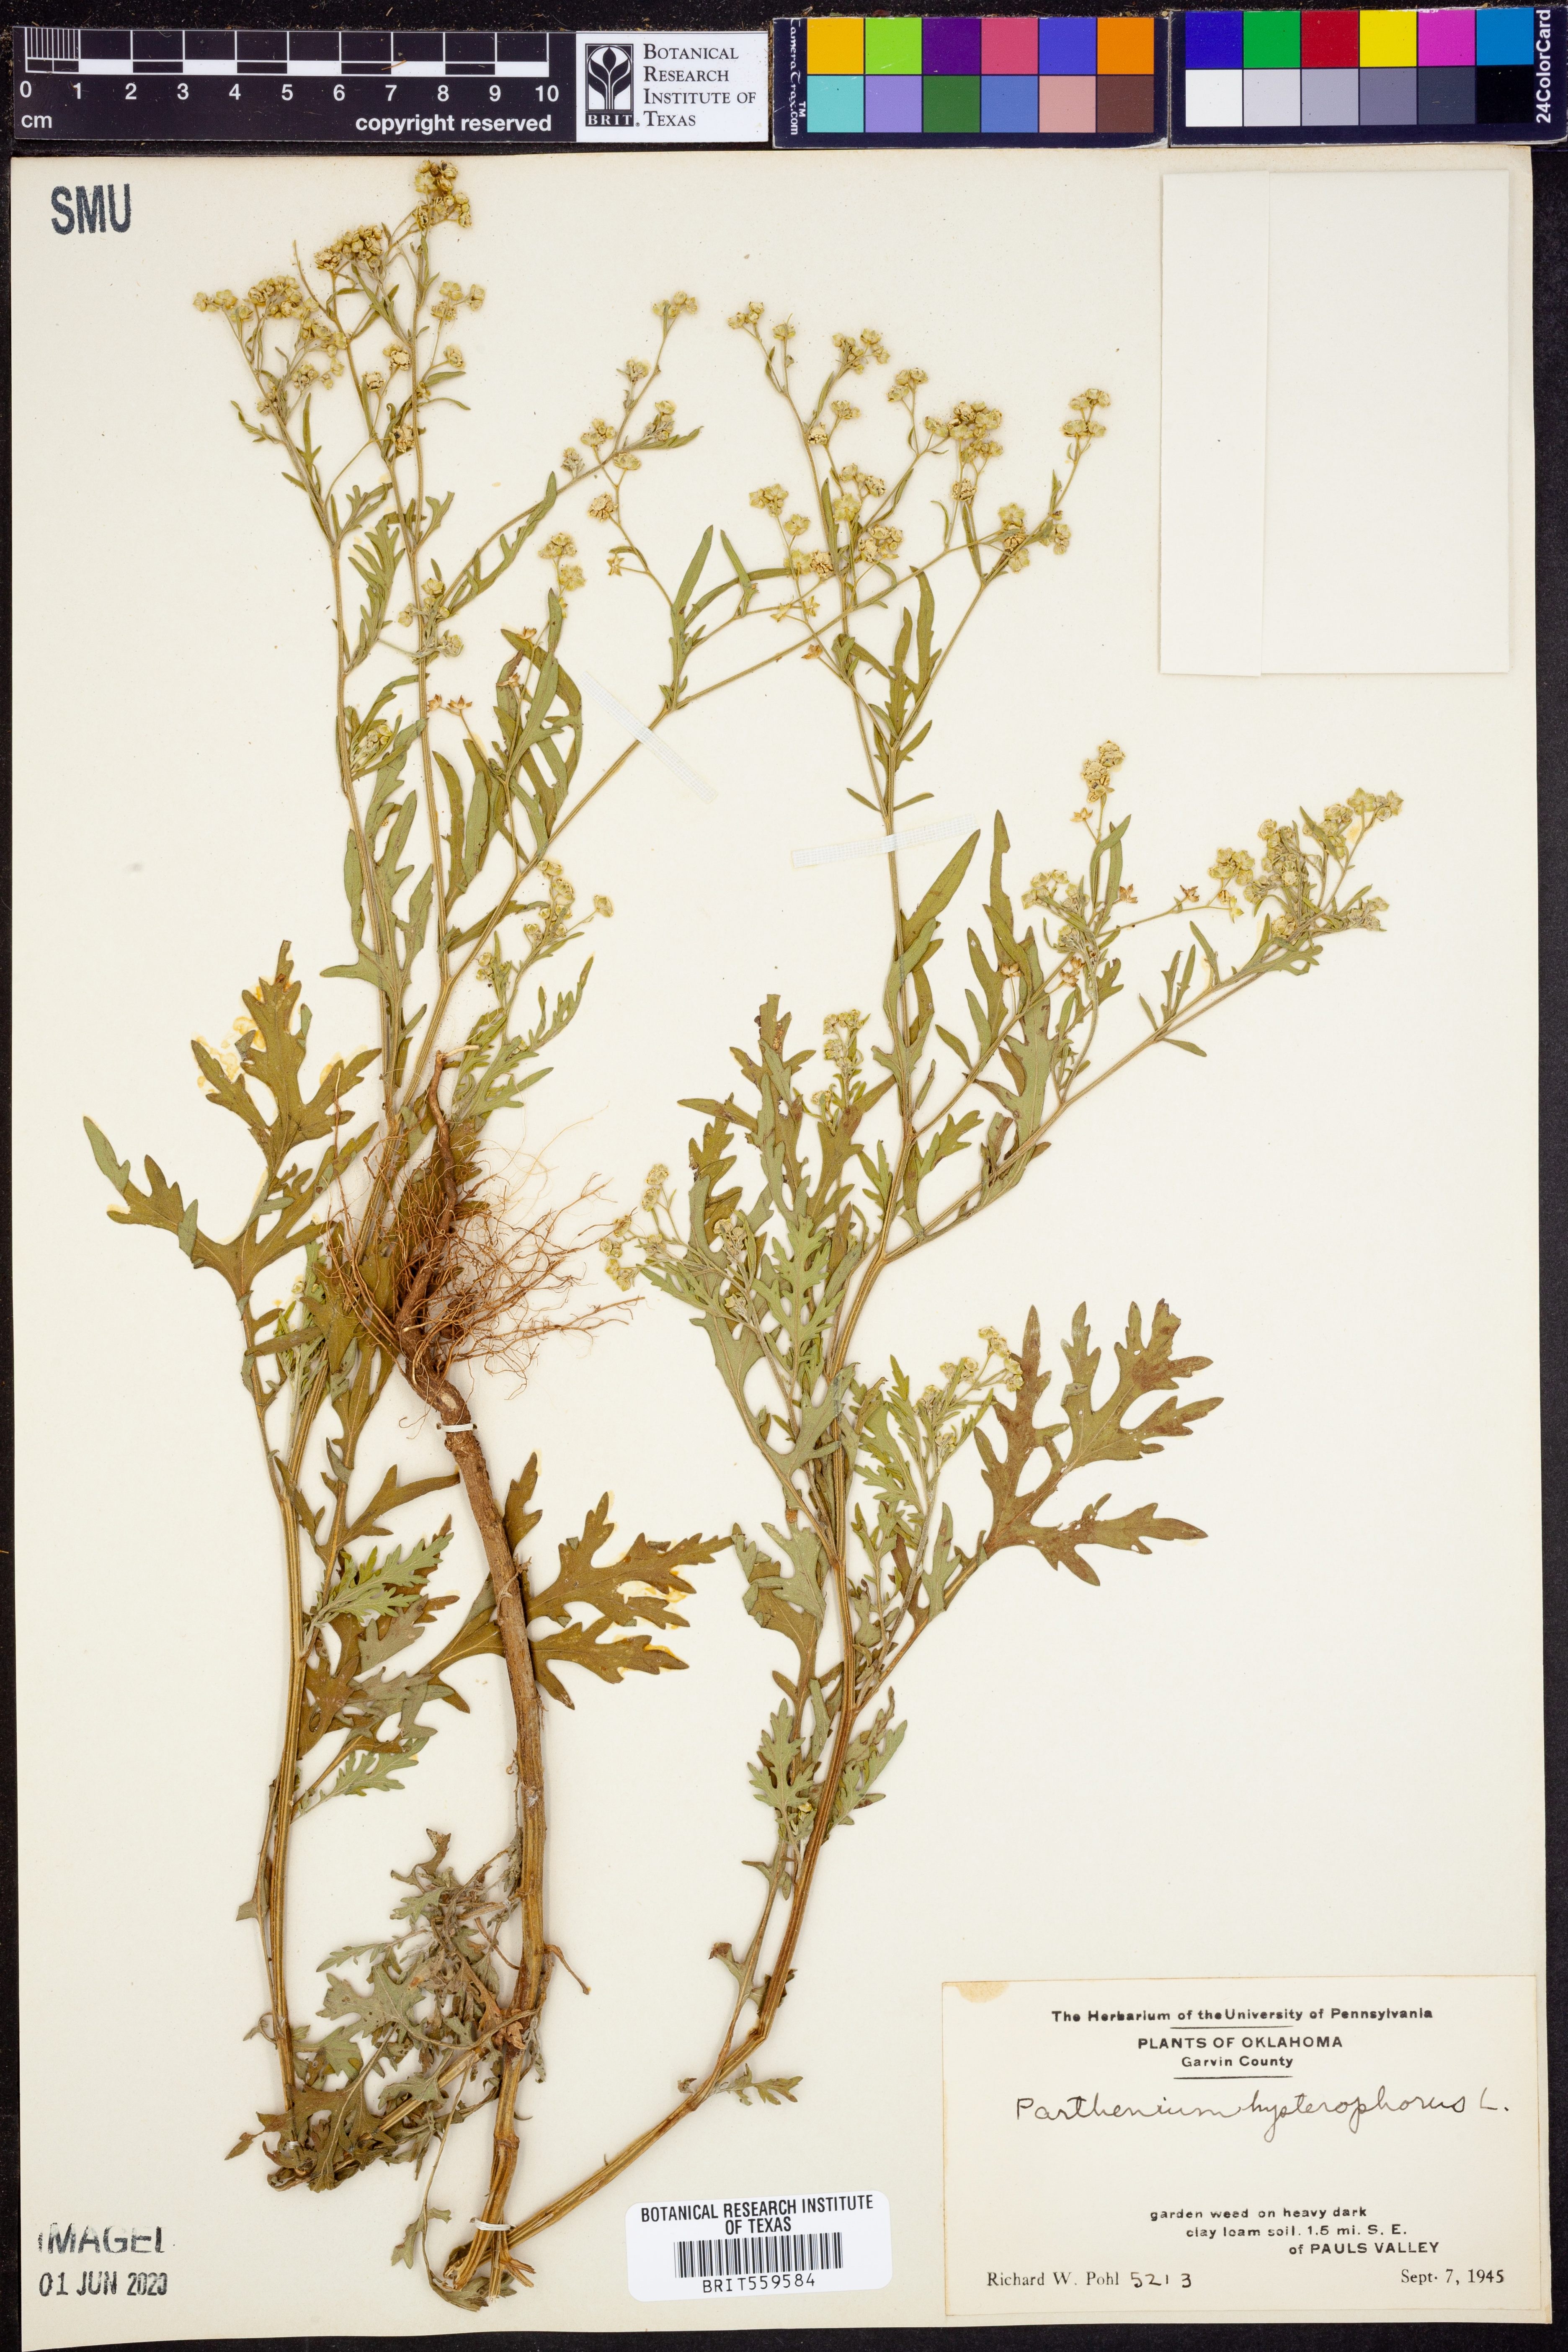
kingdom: Plantae
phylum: Tracheophyta
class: Magnoliopsida
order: Asterales
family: Asteraceae
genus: Parthenium
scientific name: Parthenium hysterophorus
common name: Santa maria feverfew
